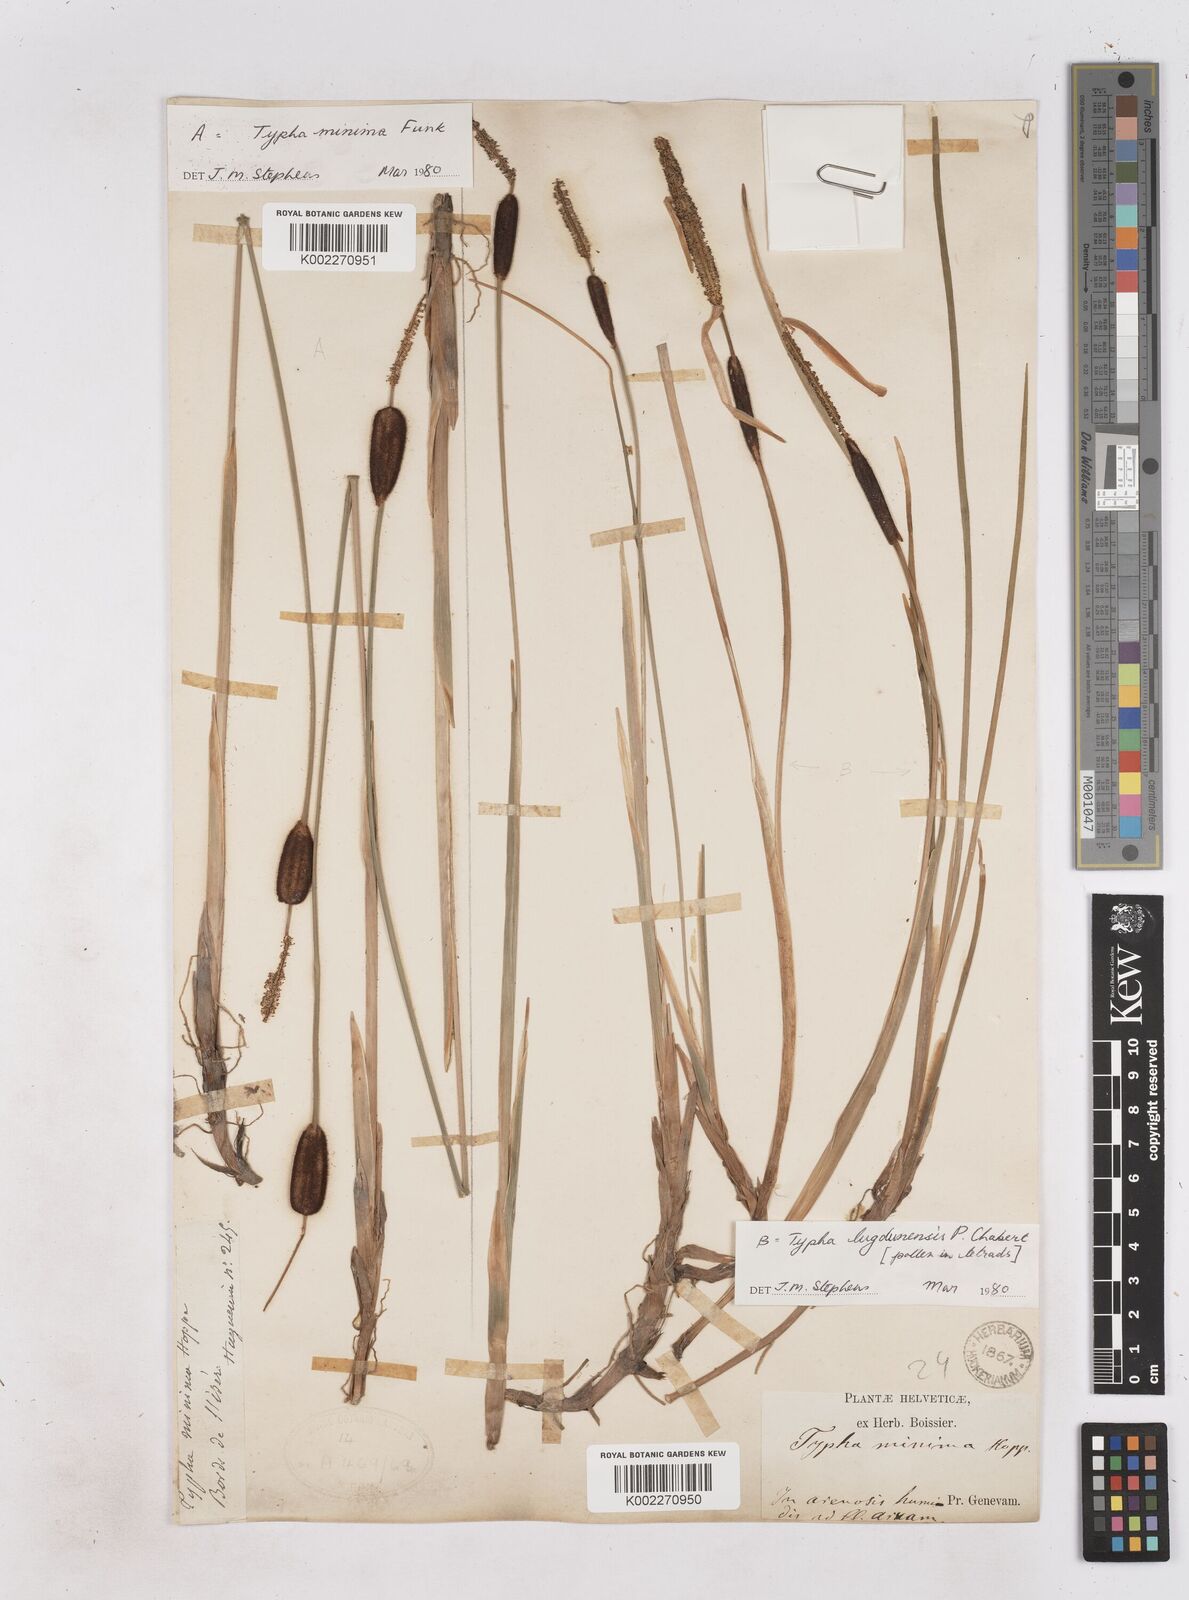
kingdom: Plantae
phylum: Tracheophyta
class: Liliopsida
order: Poales
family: Typhaceae
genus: Typha
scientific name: Typha lugdunensis
